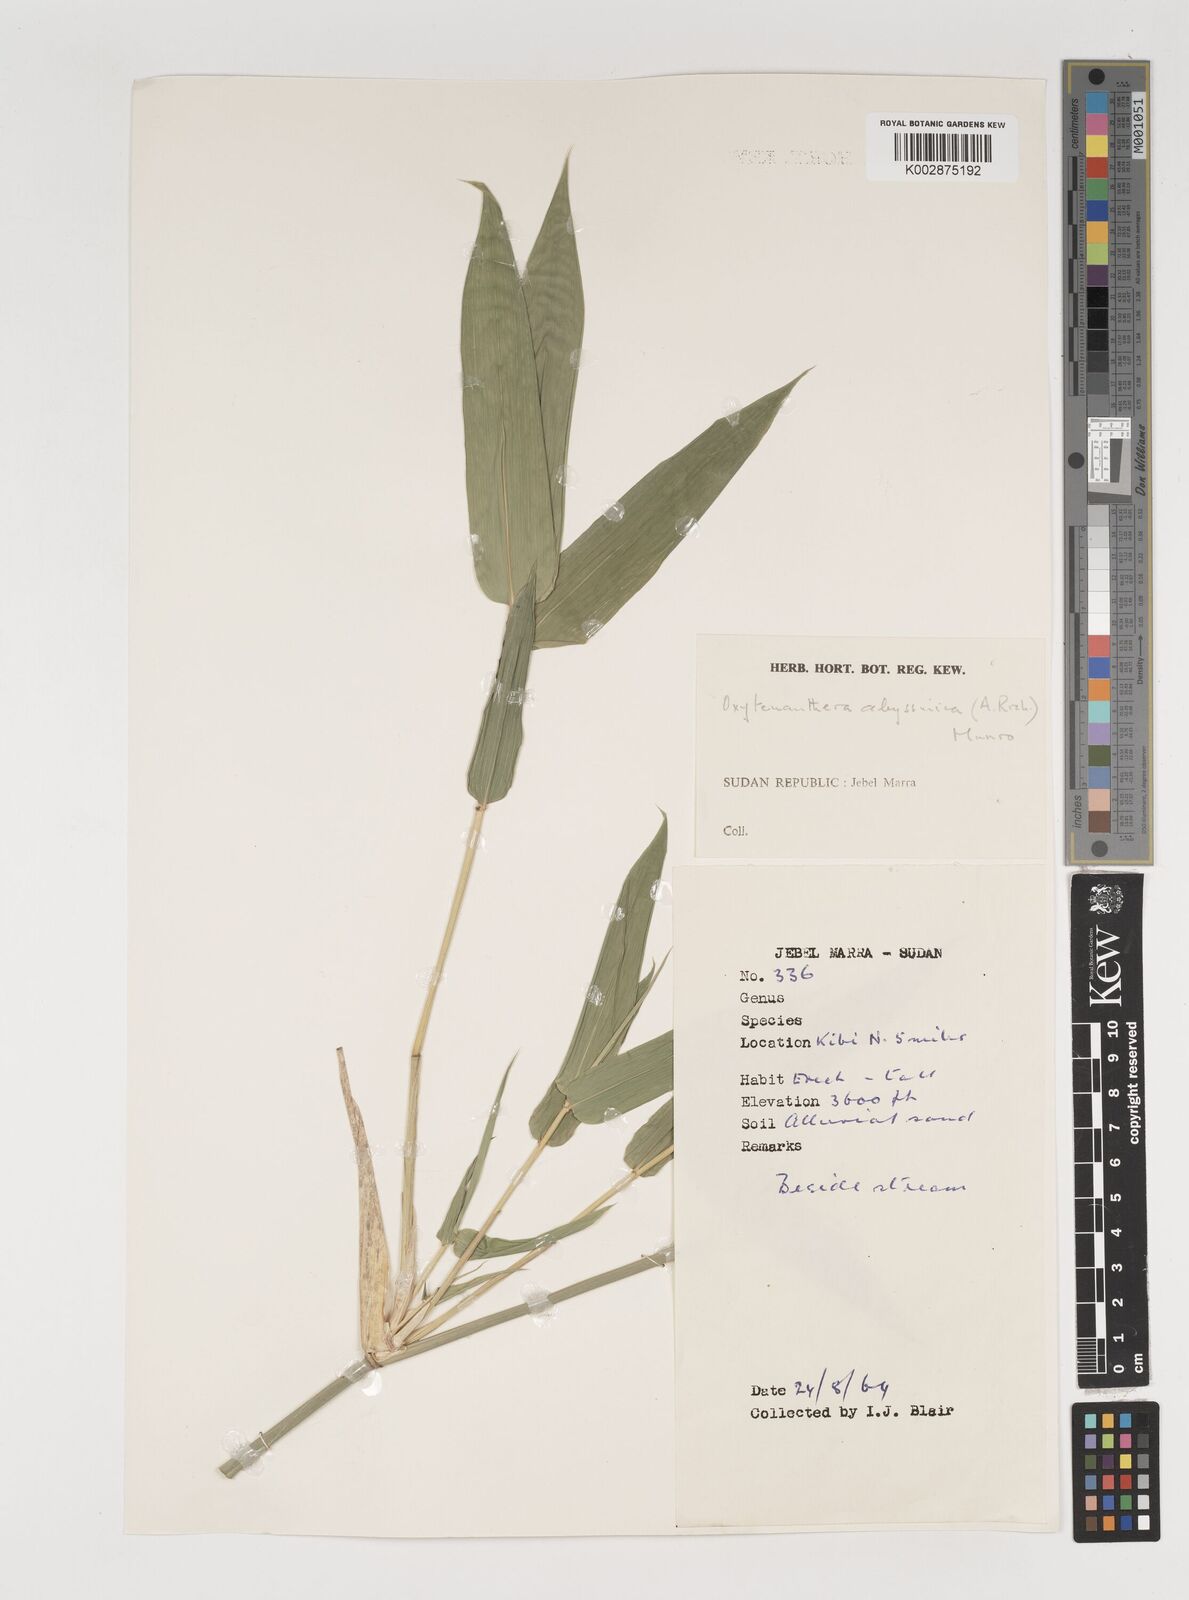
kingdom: Plantae
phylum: Tracheophyta
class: Liliopsida
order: Poales
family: Poaceae
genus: Oxytenanthera
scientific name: Oxytenanthera abyssinica
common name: Wine bamboo
